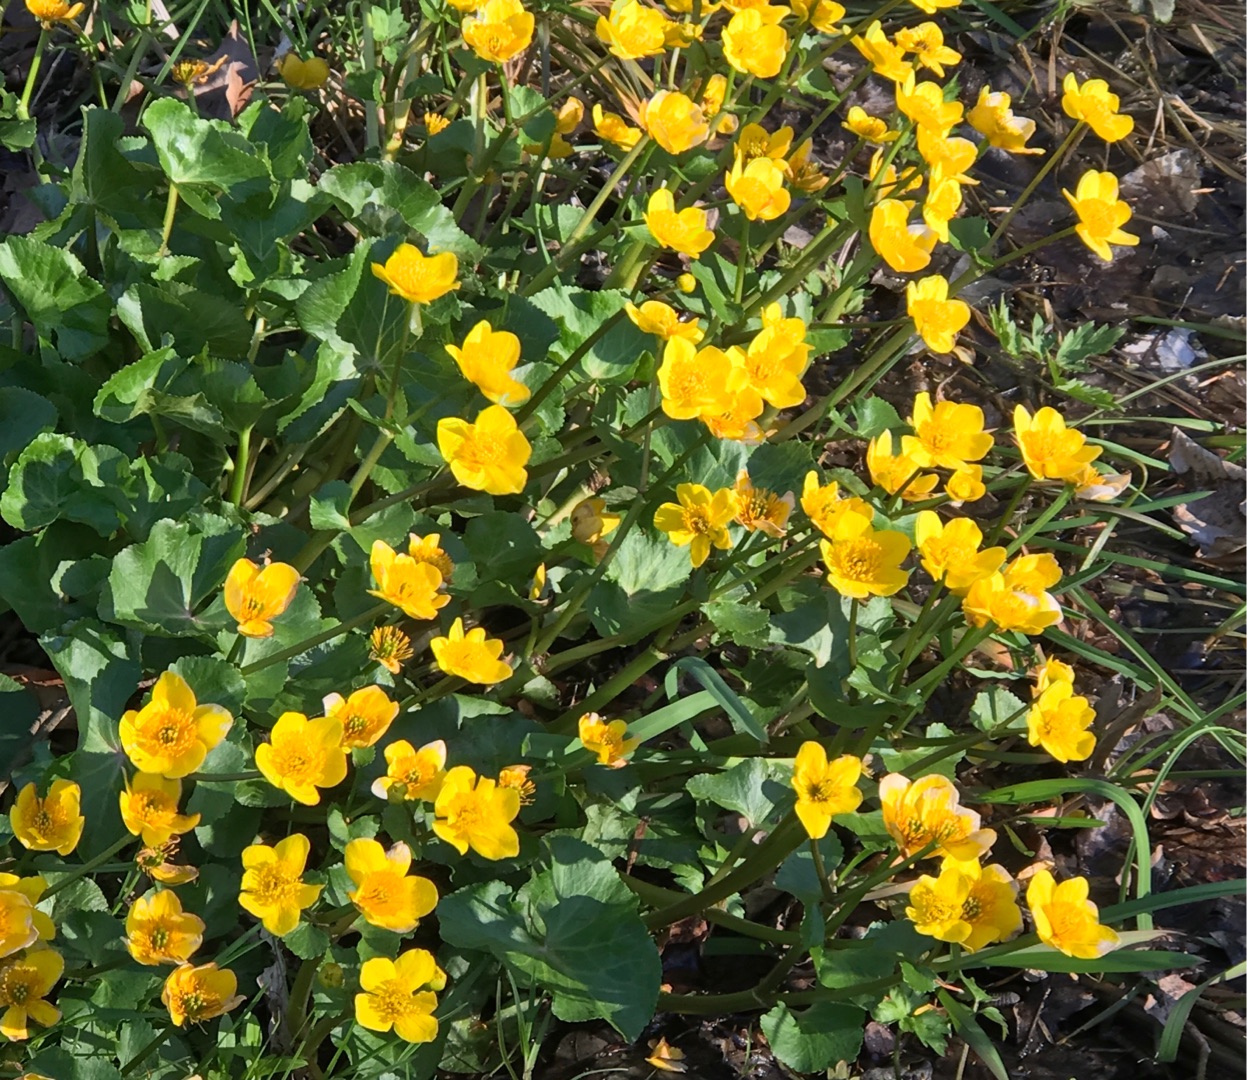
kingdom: Plantae
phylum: Tracheophyta
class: Magnoliopsida
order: Ranunculales
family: Ranunculaceae
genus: Caltha
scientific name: Caltha palustris
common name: Eng-kabbeleje
